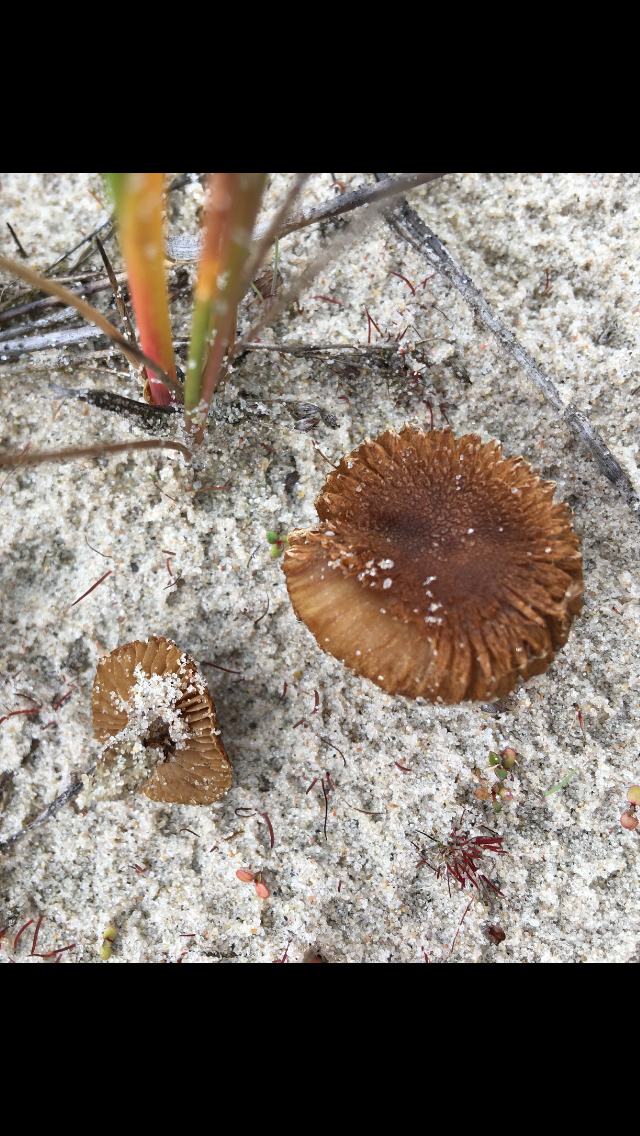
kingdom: Fungi
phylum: Basidiomycota
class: Agaricomycetes
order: Agaricales
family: Inocybaceae
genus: Inocybe
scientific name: Inocybe
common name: trævlhat
